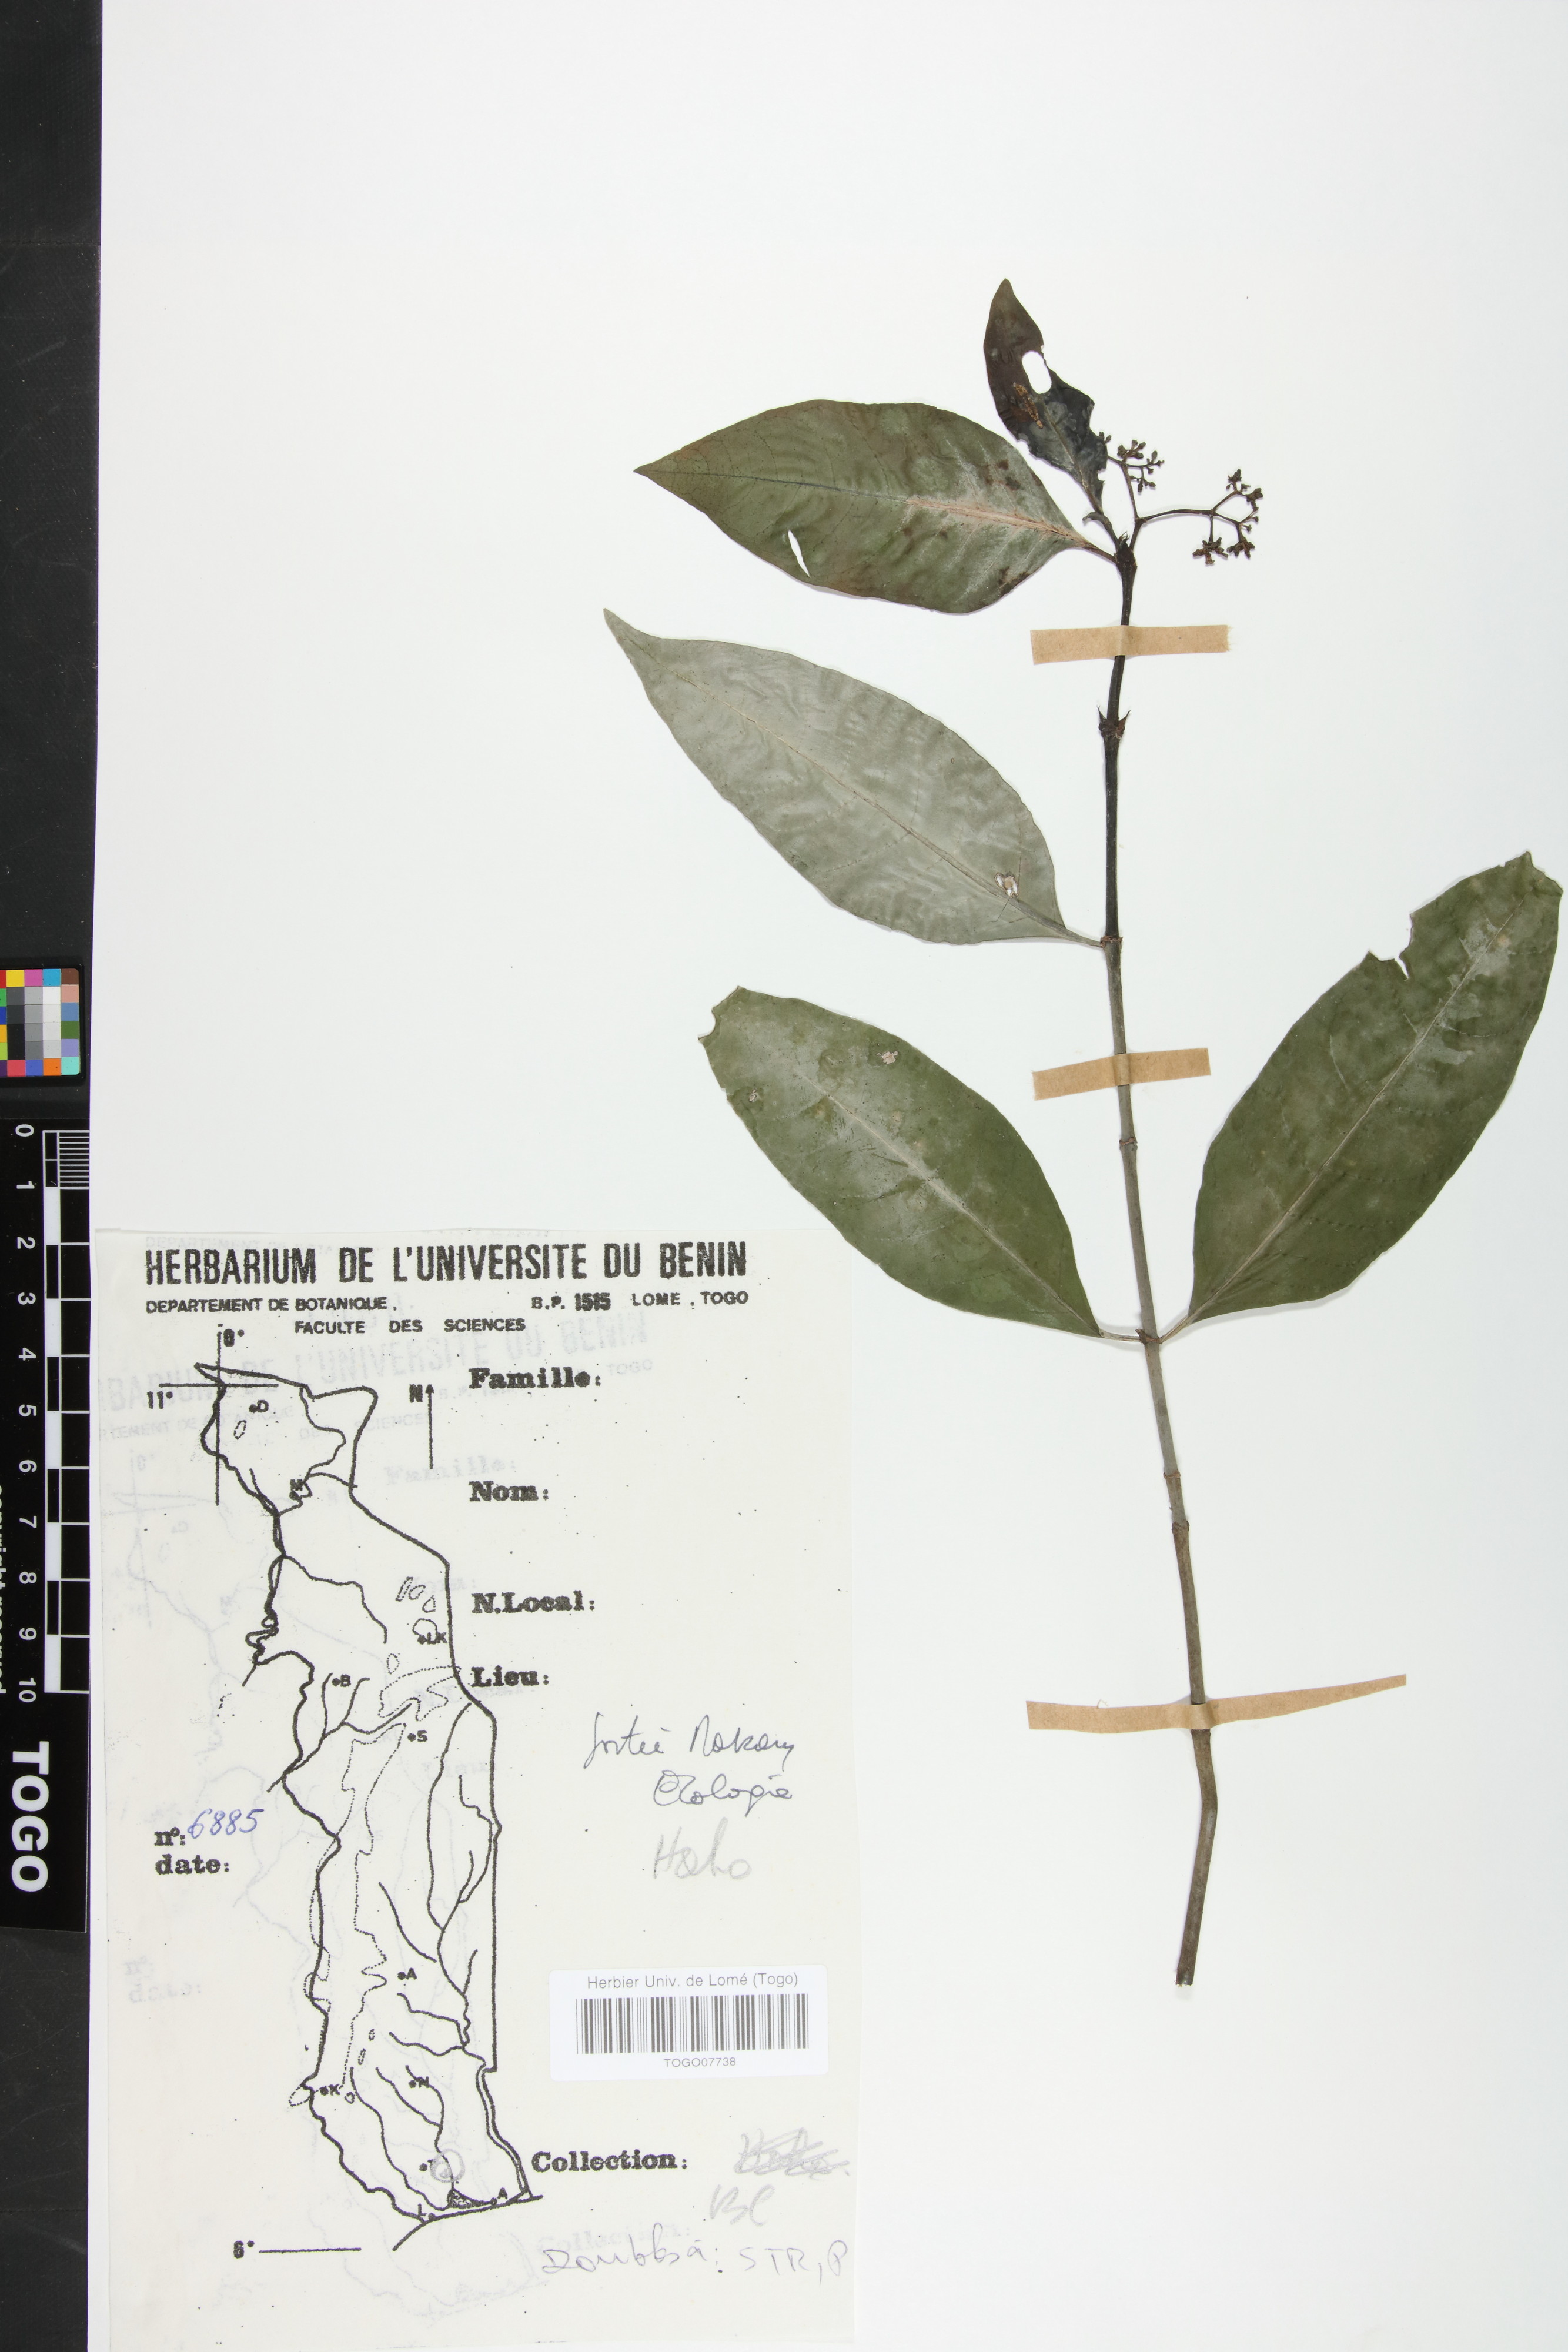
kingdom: Plantae
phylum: Tracheophyta
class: Magnoliopsida
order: Gentianales
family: Rubiaceae
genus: Psychotria
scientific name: Psychotria calva
